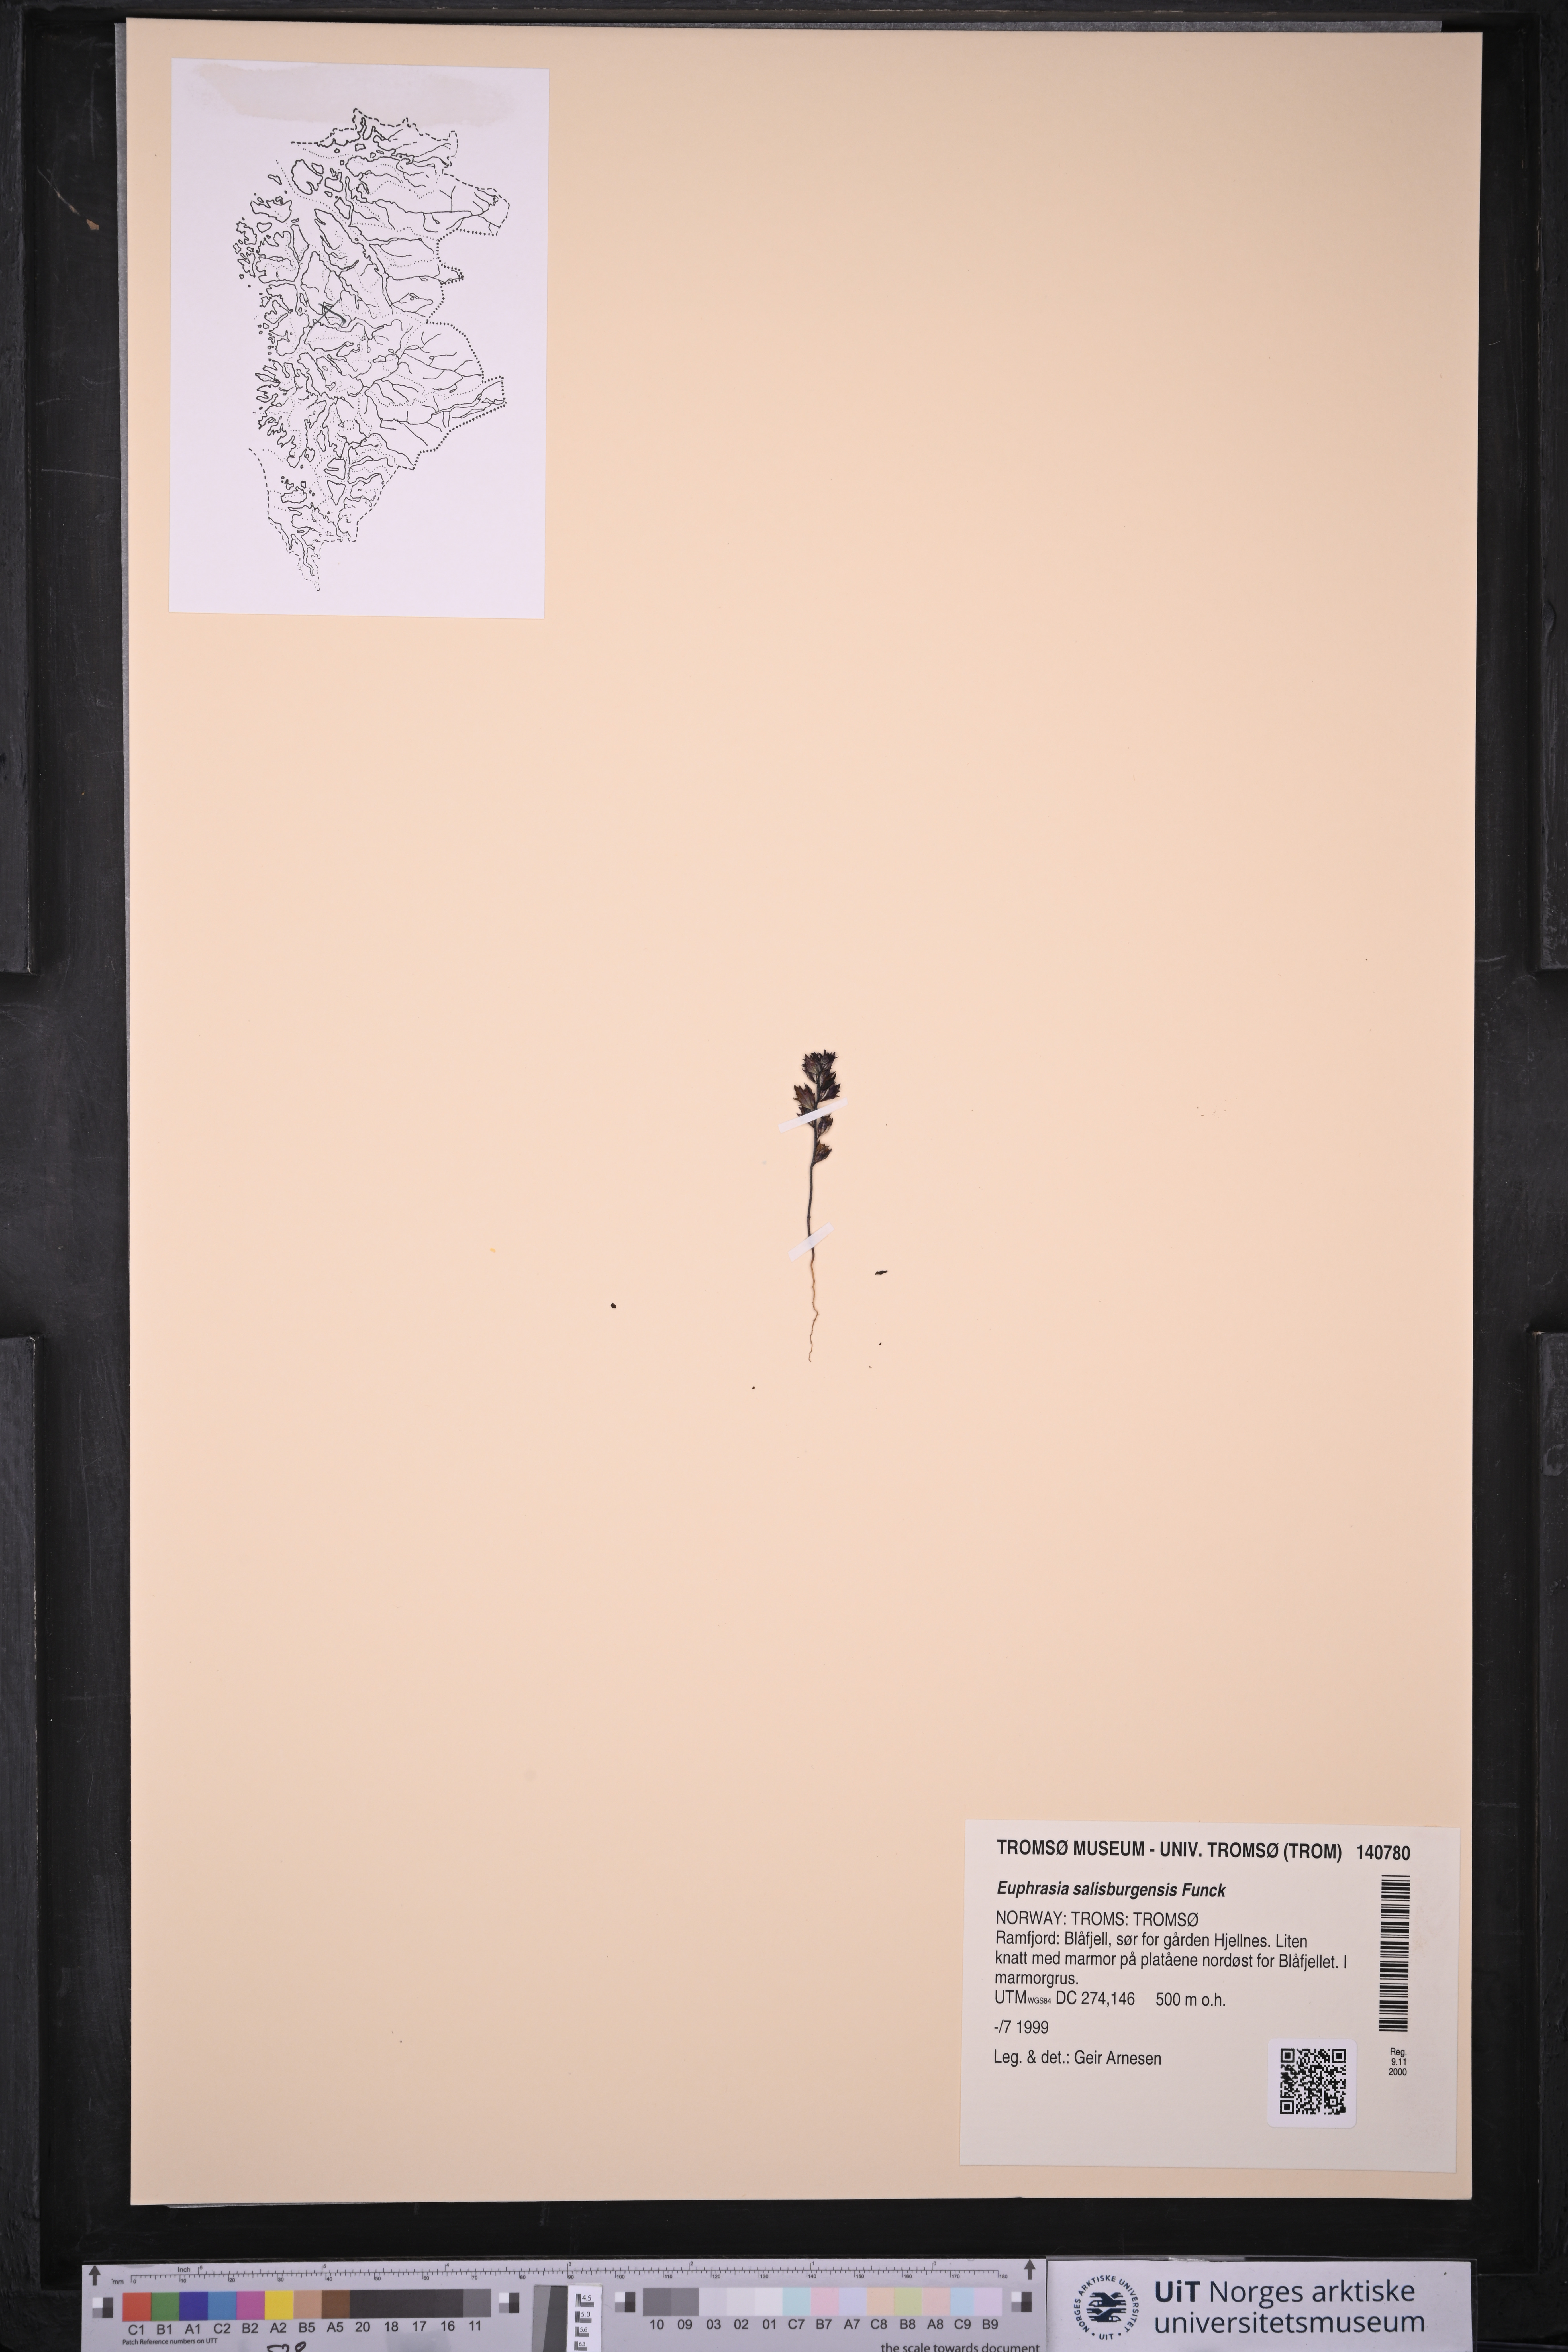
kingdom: Plantae
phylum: Tracheophyta
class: Magnoliopsida
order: Lamiales
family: Orobanchaceae
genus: Euphrasia
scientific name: Euphrasia salisburgensis
